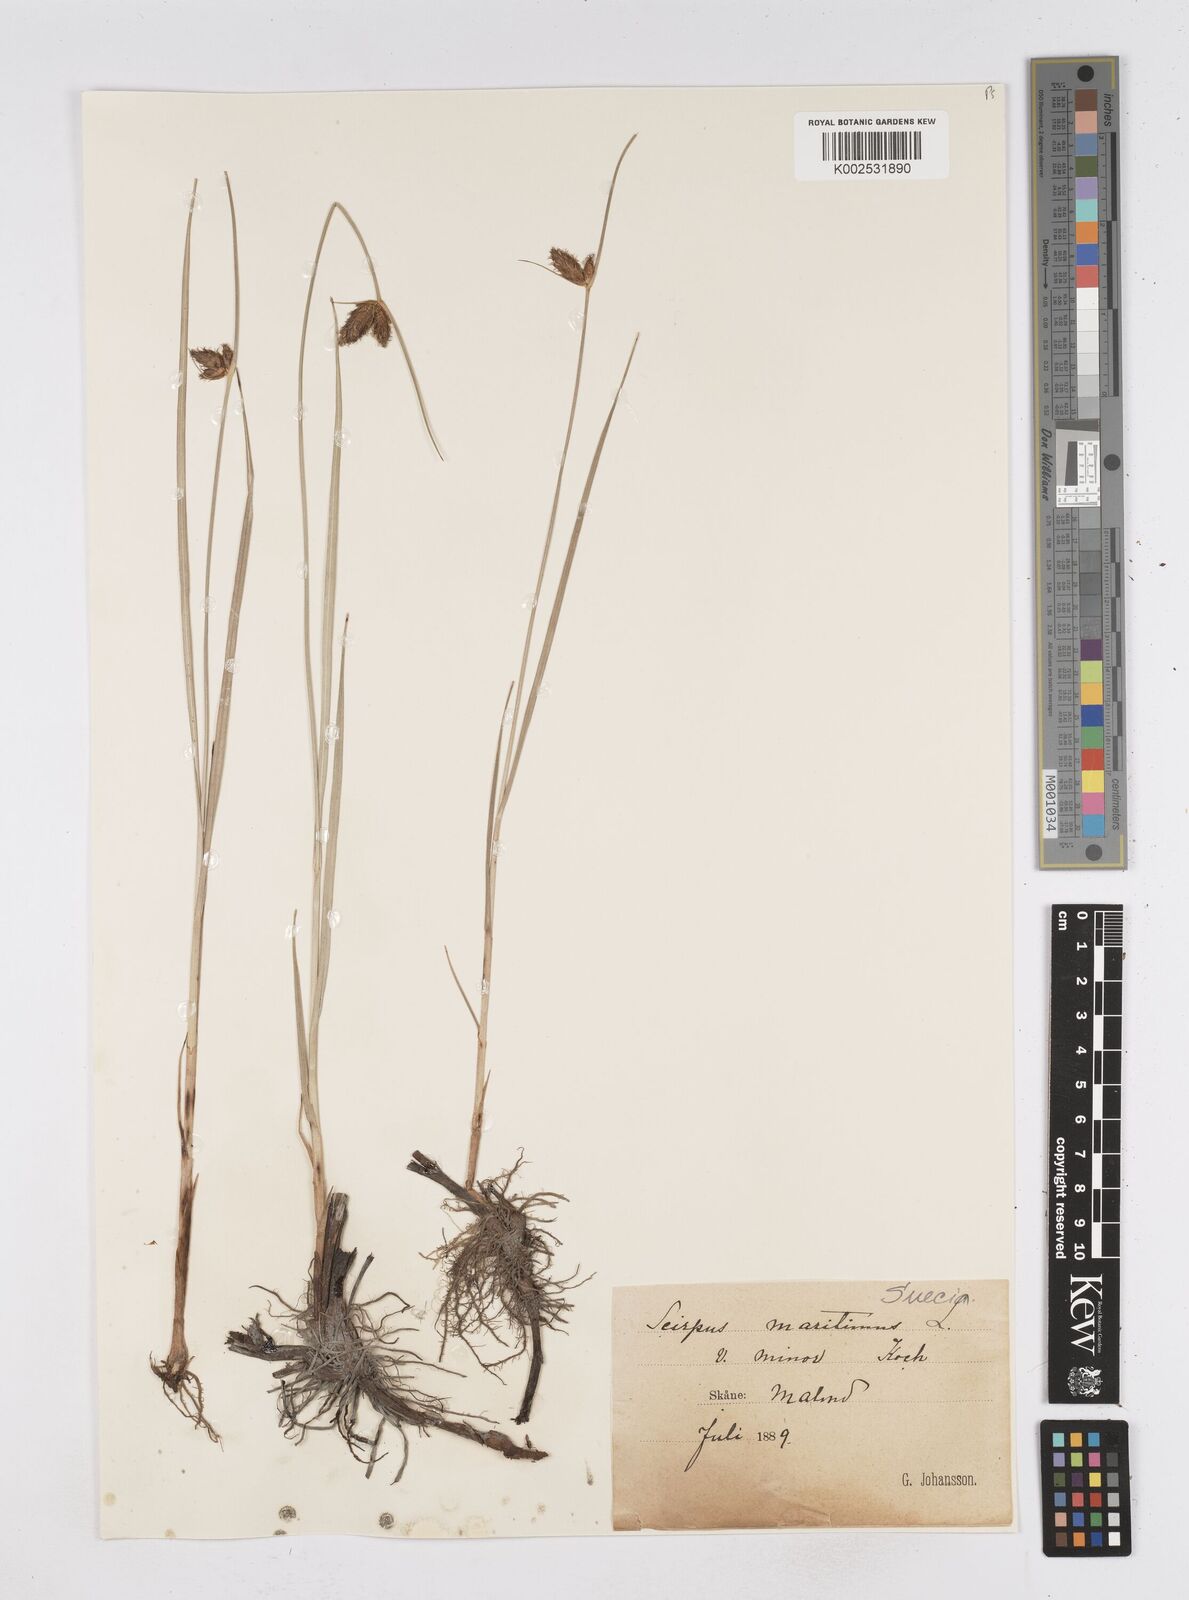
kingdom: Plantae
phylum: Tracheophyta
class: Liliopsida
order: Poales
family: Cyperaceae
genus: Bolboschoenus
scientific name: Bolboschoenus maritimus
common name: Sea club-rush
